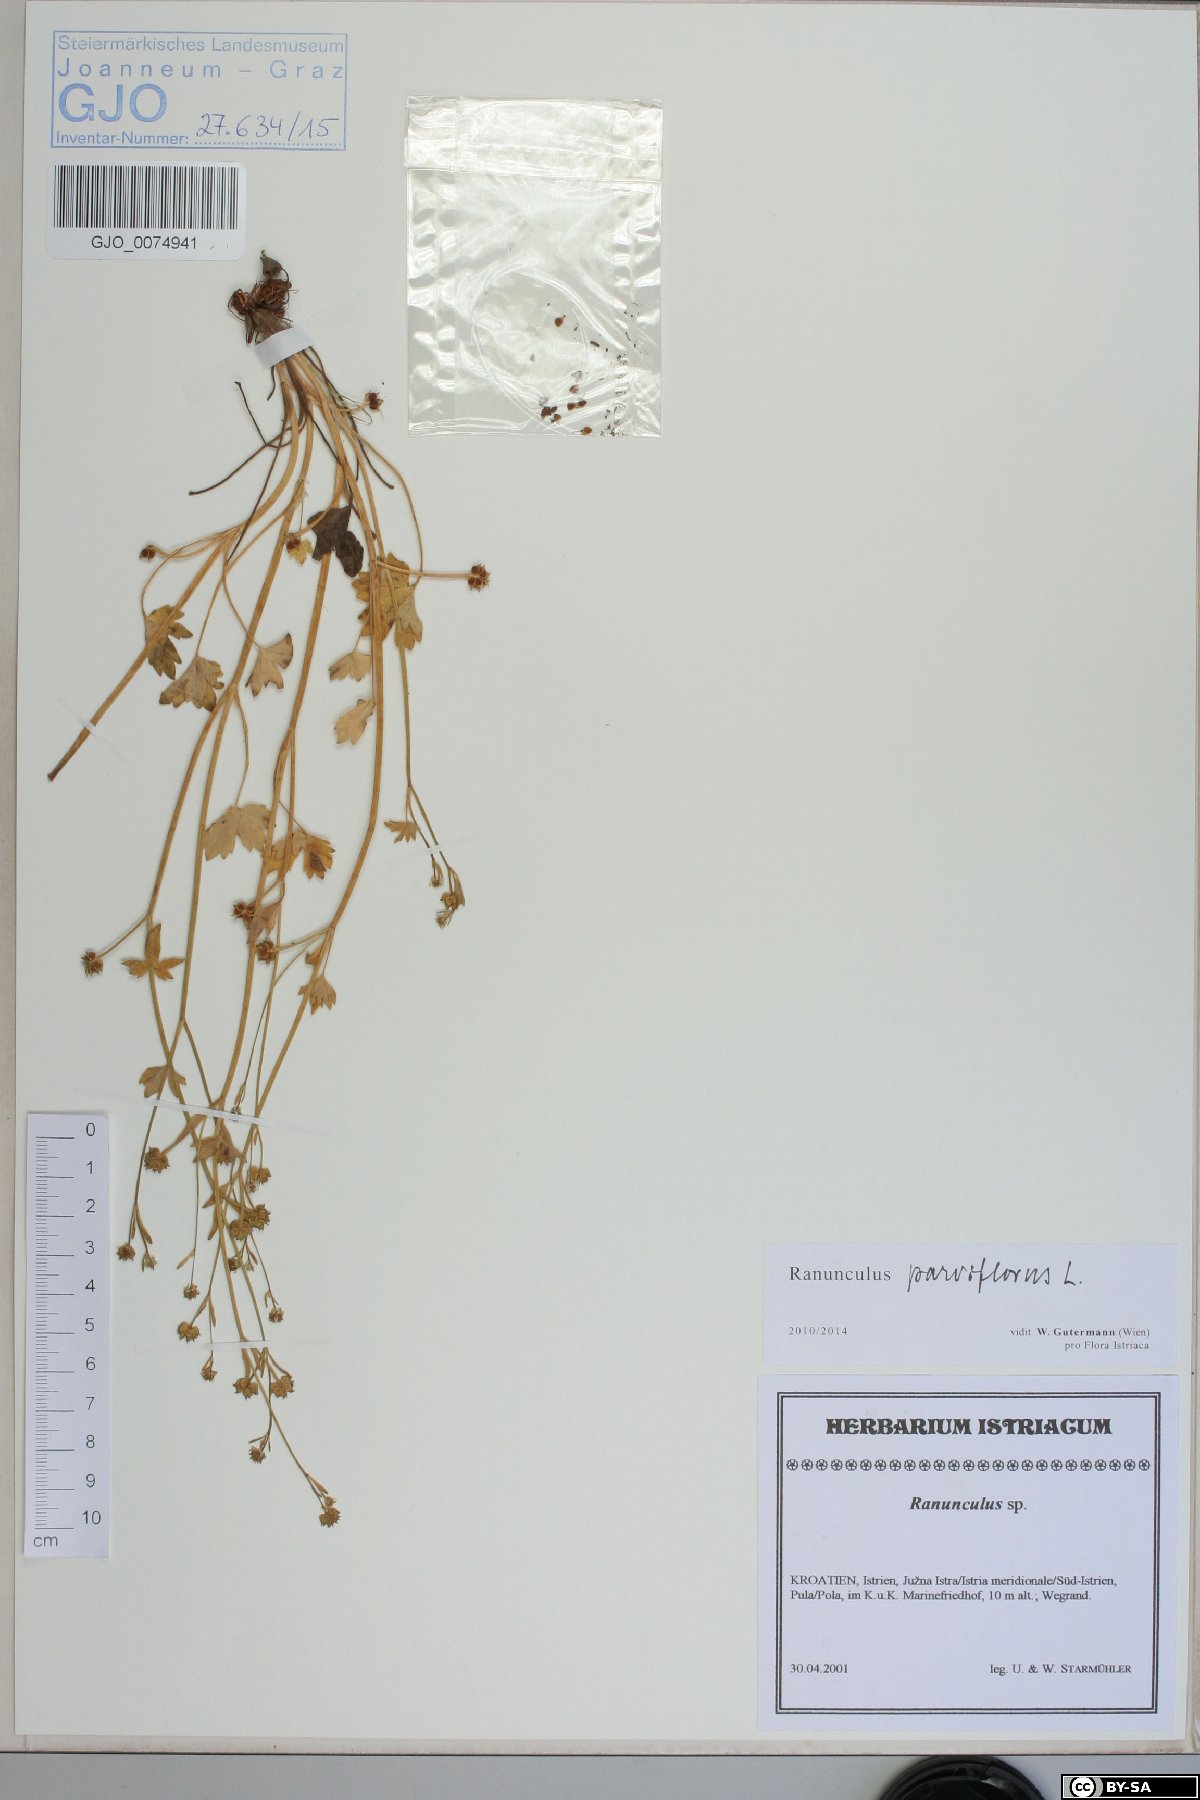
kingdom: Plantae
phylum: Tracheophyta
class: Magnoliopsida
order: Ranunculales
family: Ranunculaceae
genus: Ranunculus
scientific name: Ranunculus parviflorus
